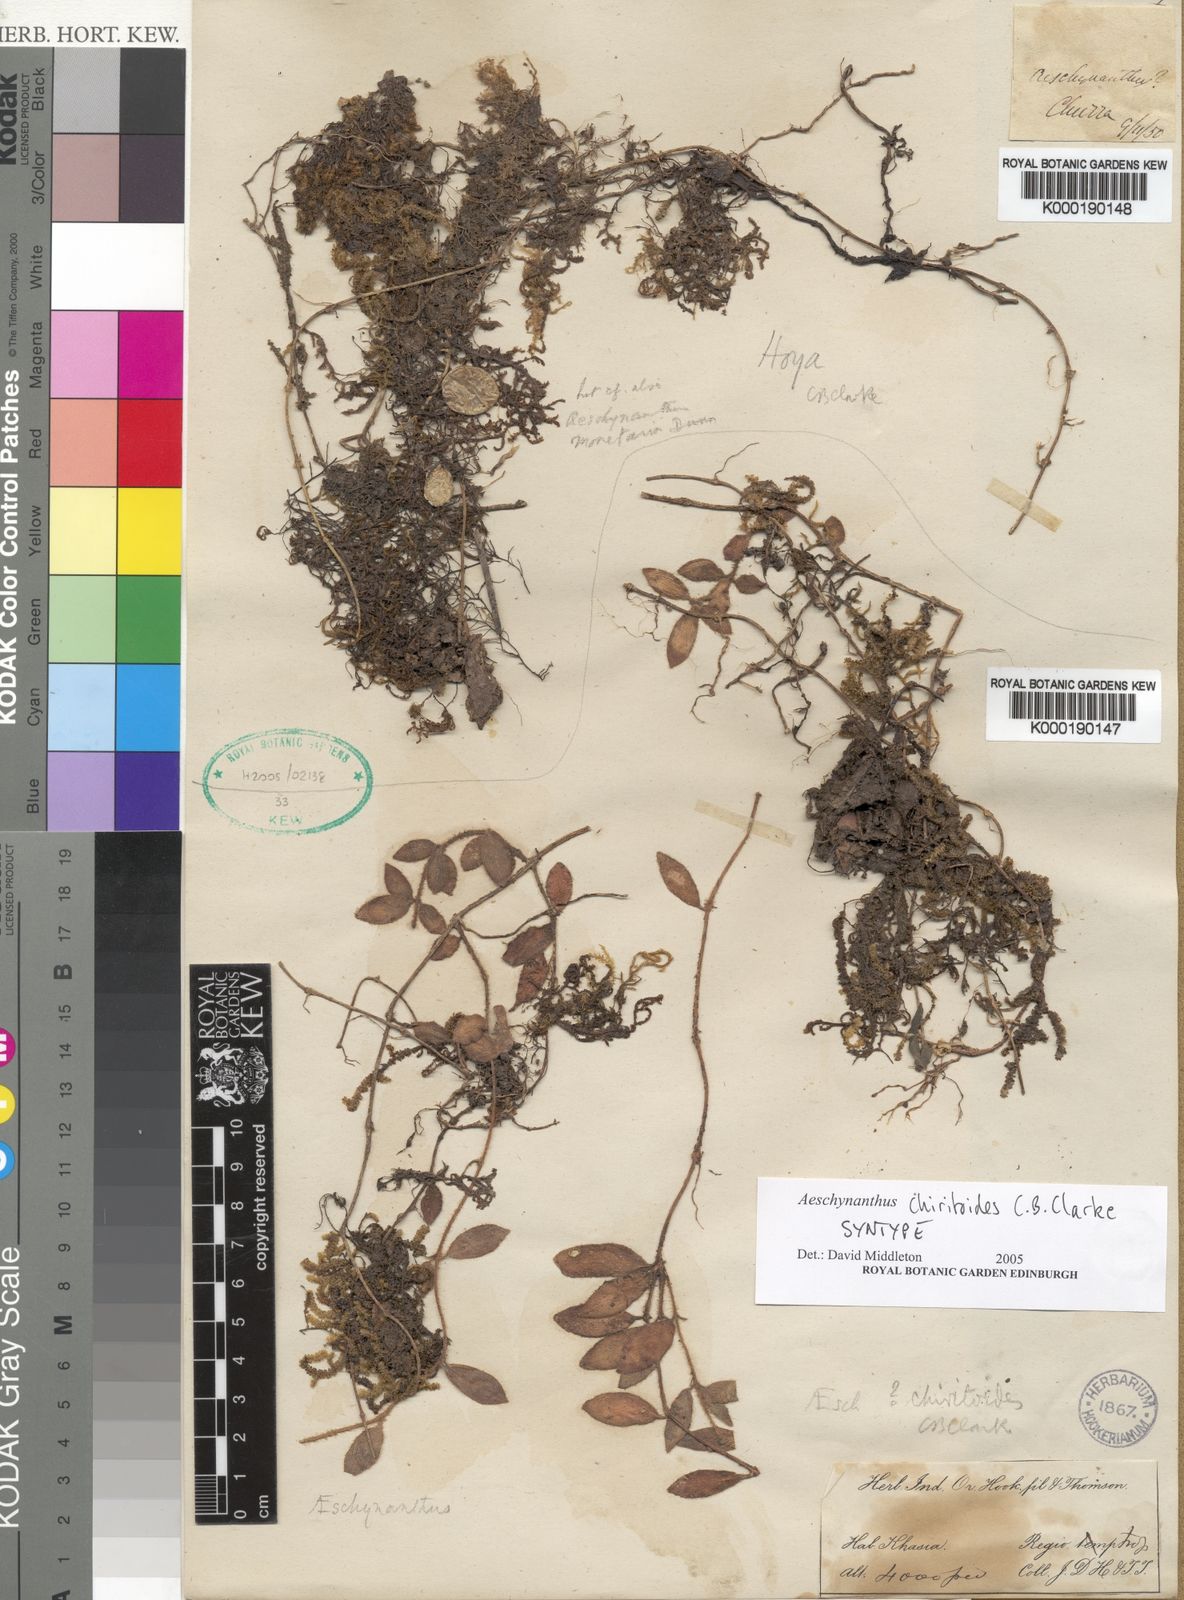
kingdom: Plantae
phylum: Tracheophyta
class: Magnoliopsida
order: Lamiales
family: Gesneriaceae
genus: Aeschynanthus
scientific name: Aeschynanthus chiritoides
